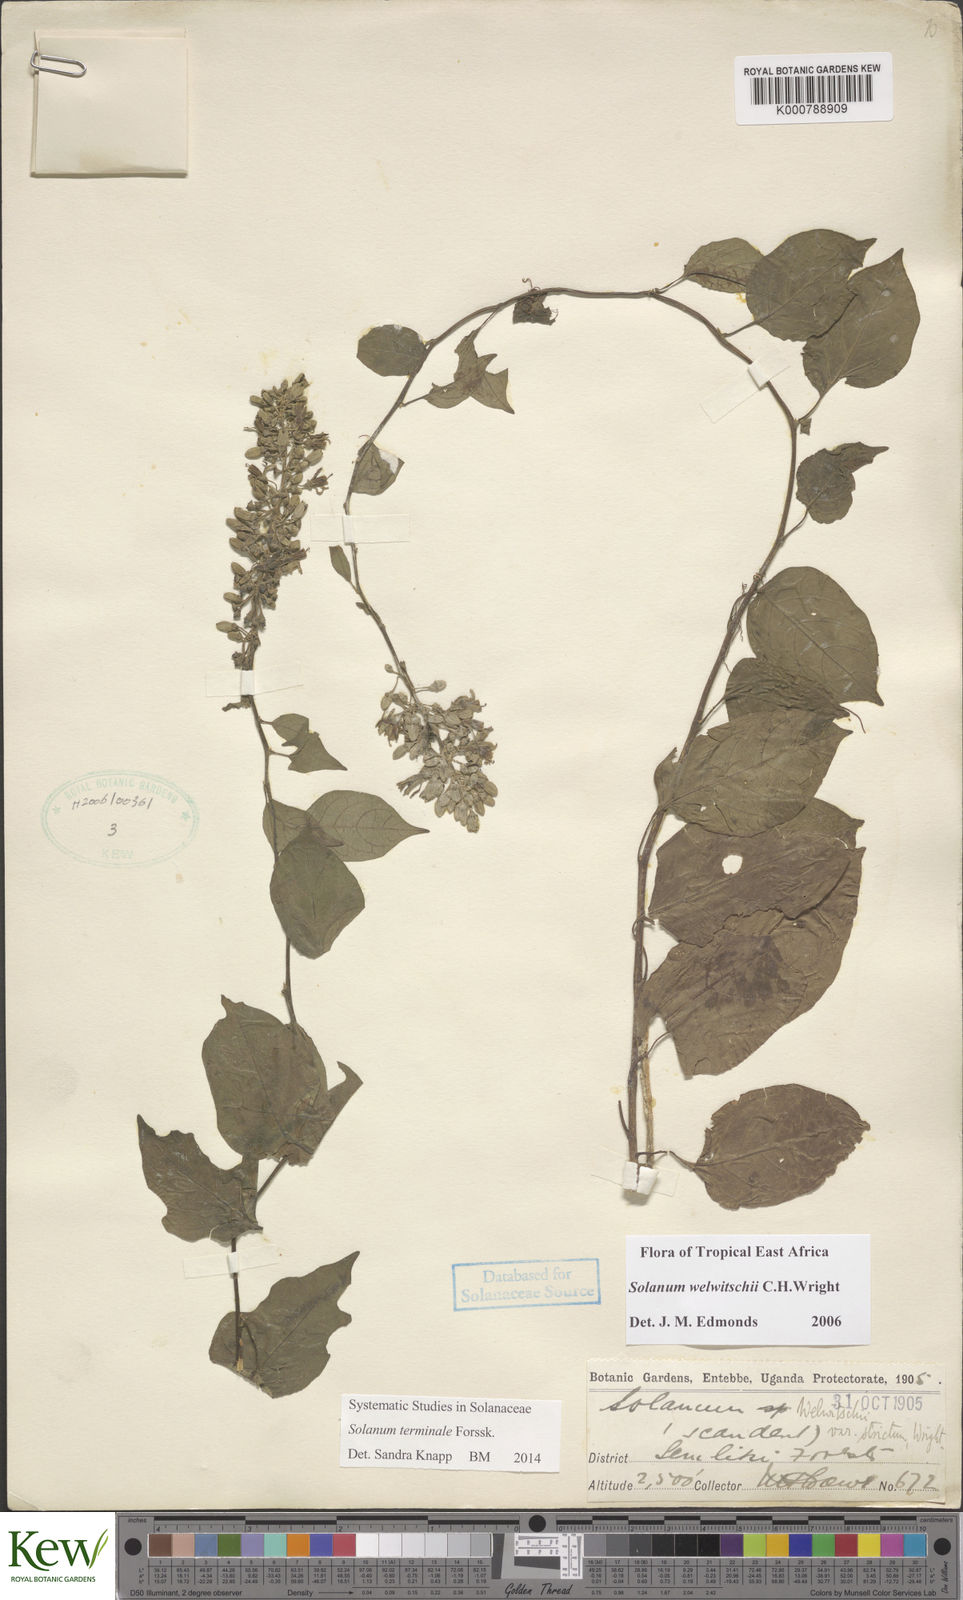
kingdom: Plantae
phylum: Tracheophyta
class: Magnoliopsida
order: Solanales
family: Solanaceae
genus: Solanum
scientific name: Solanum terminale
